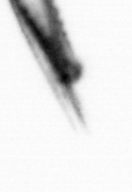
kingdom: Animalia
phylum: Annelida
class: Polychaeta
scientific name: Polychaeta
